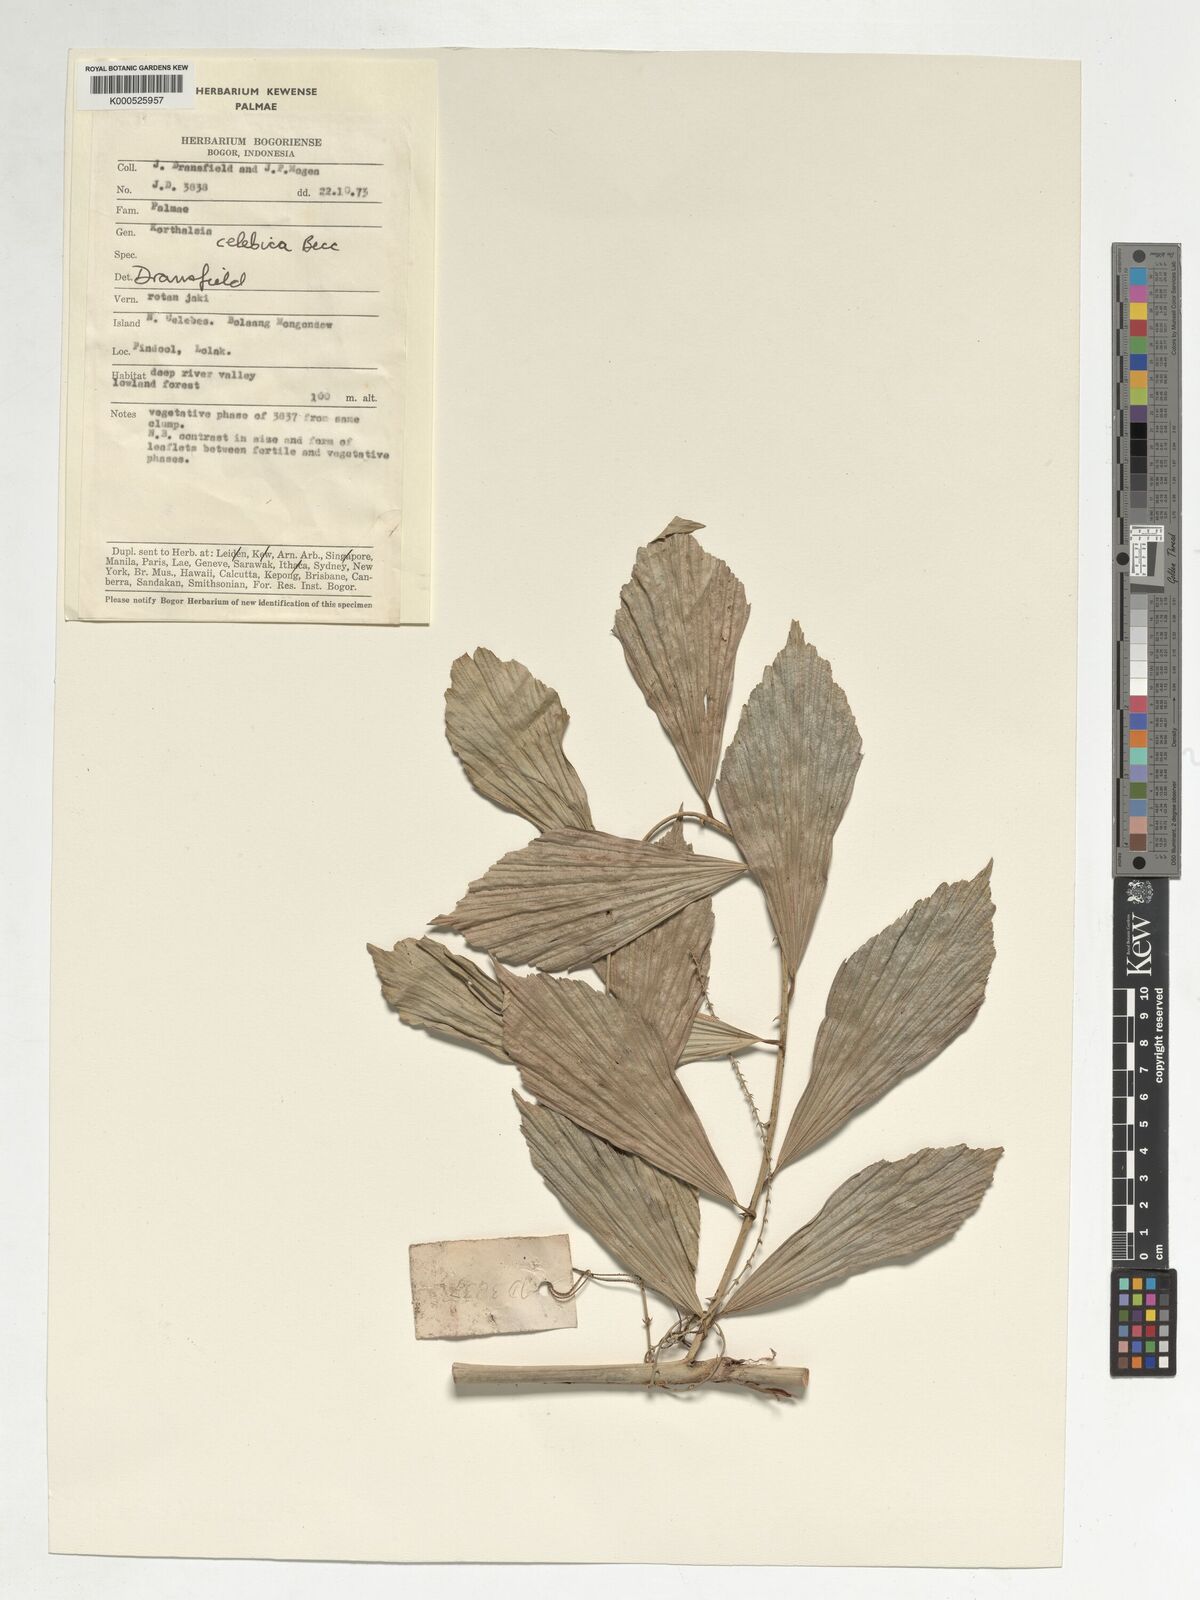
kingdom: Plantae
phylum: Tracheophyta
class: Liliopsida
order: Arecales
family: Arecaceae
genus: Korthalsia
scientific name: Korthalsia celebica
